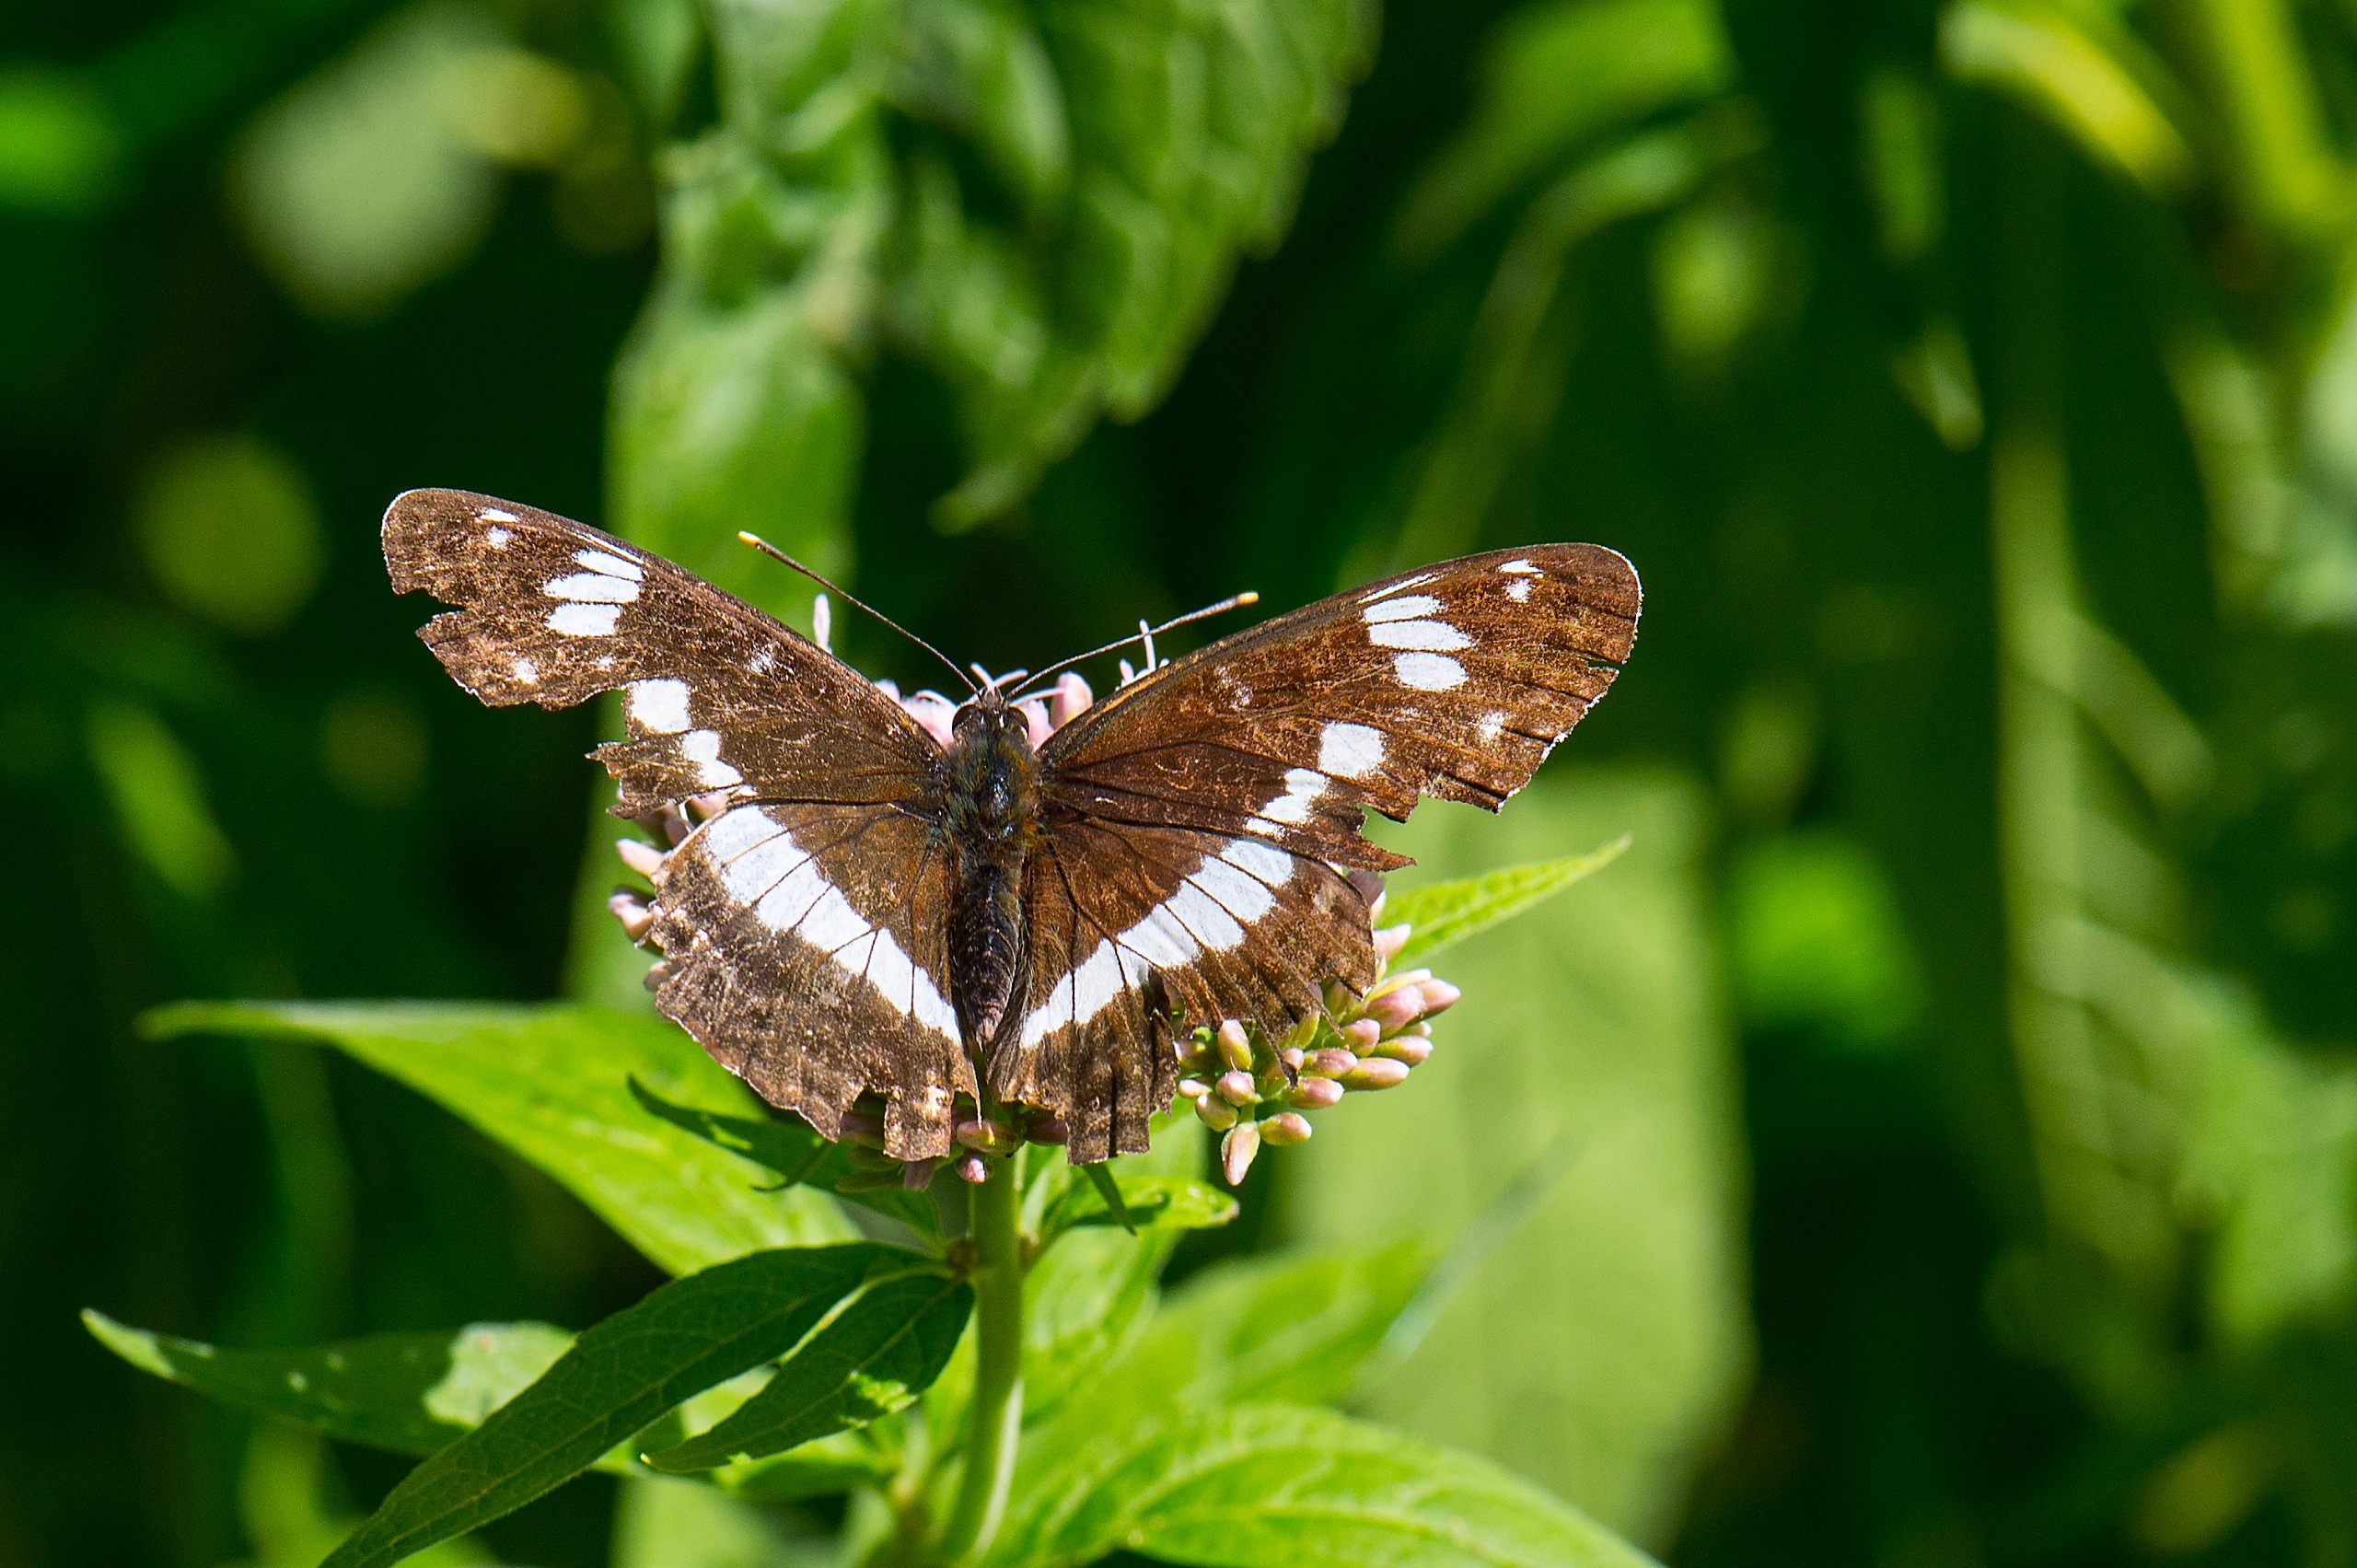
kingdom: Animalia
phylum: Arthropoda
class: Insecta
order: Lepidoptera
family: Nymphalidae
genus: Ladoga
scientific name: Ladoga camilla
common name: Hvid admiral
